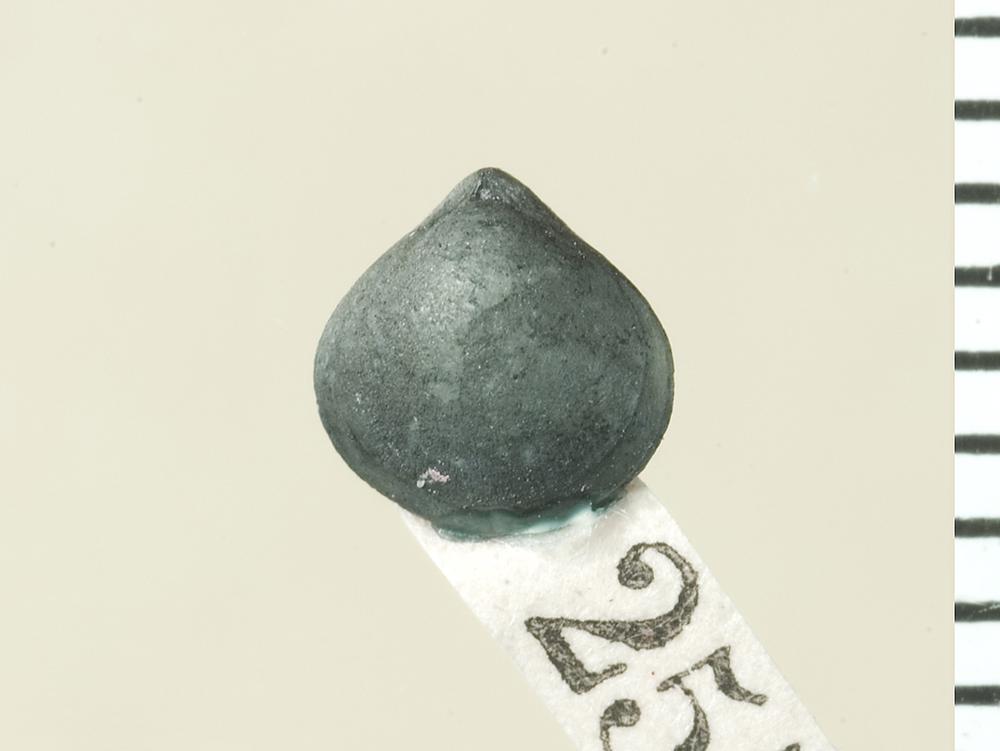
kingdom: Animalia
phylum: Brachiopoda
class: Rhynchonellata
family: Meristellidae
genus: Koigia
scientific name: Koigia
